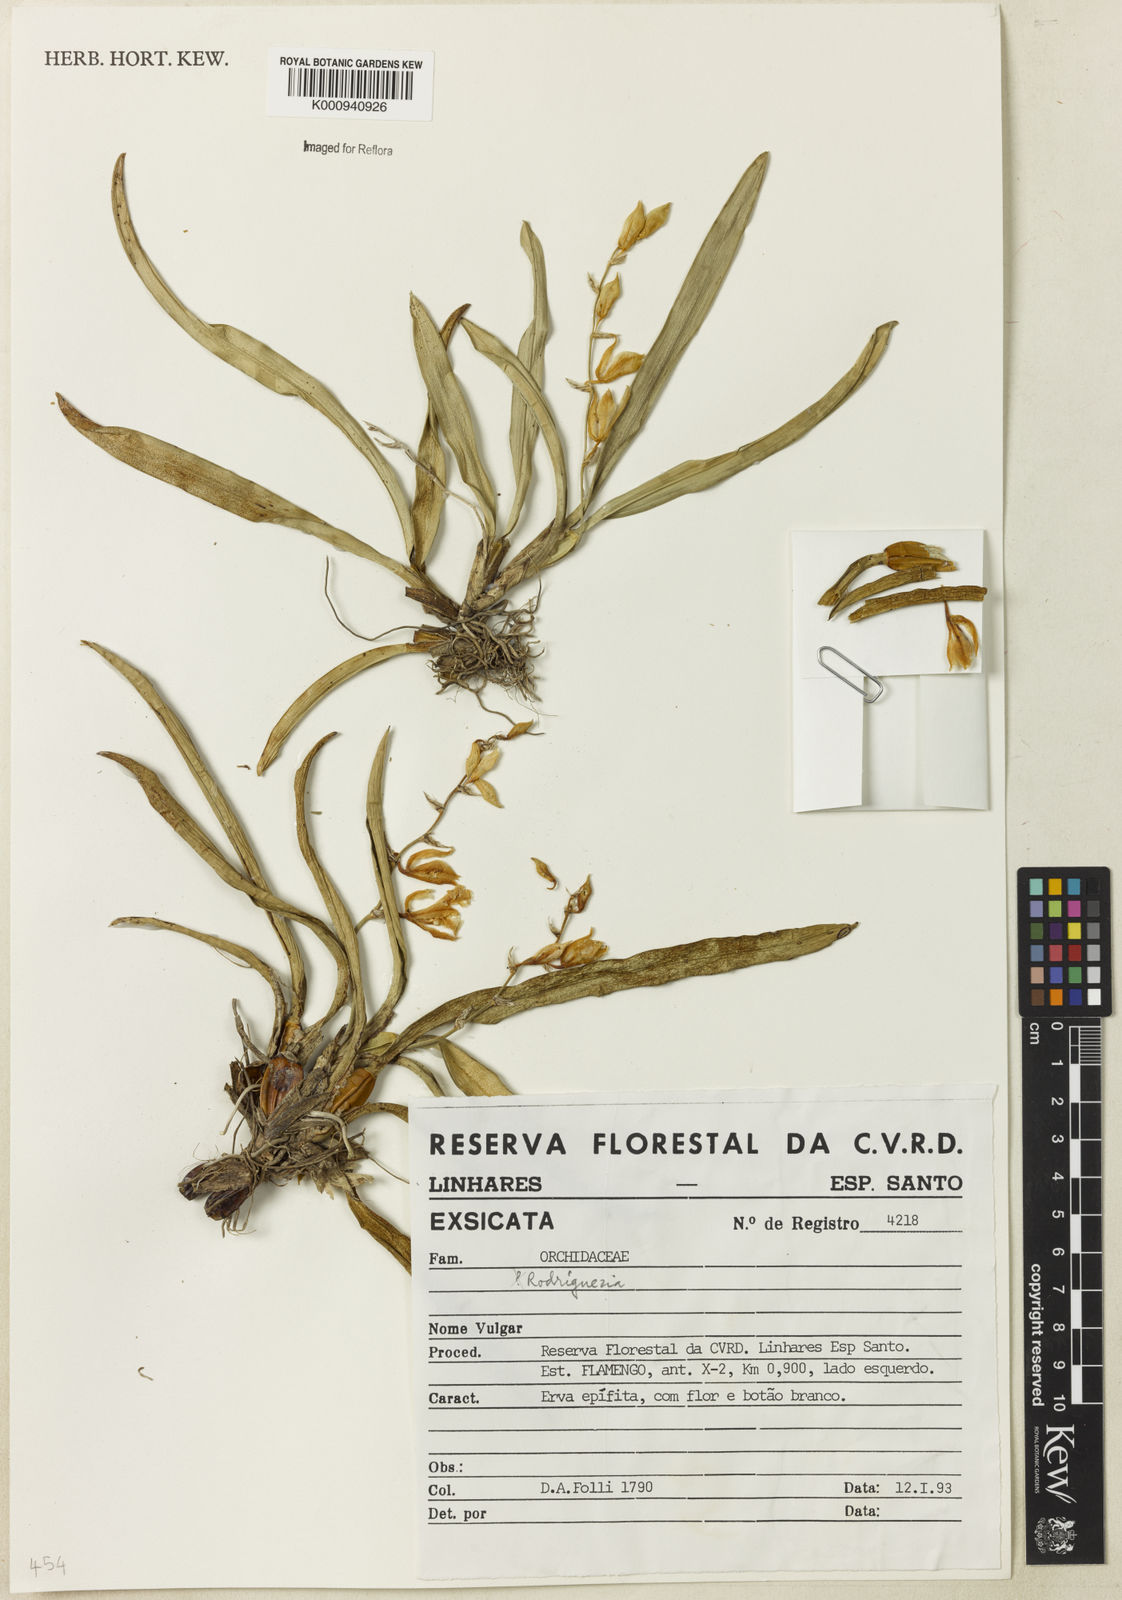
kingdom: Plantae
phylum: Tracheophyta
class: Liliopsida
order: Asparagales
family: Orchidaceae
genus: Rodriguezia
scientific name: Rodriguezia
